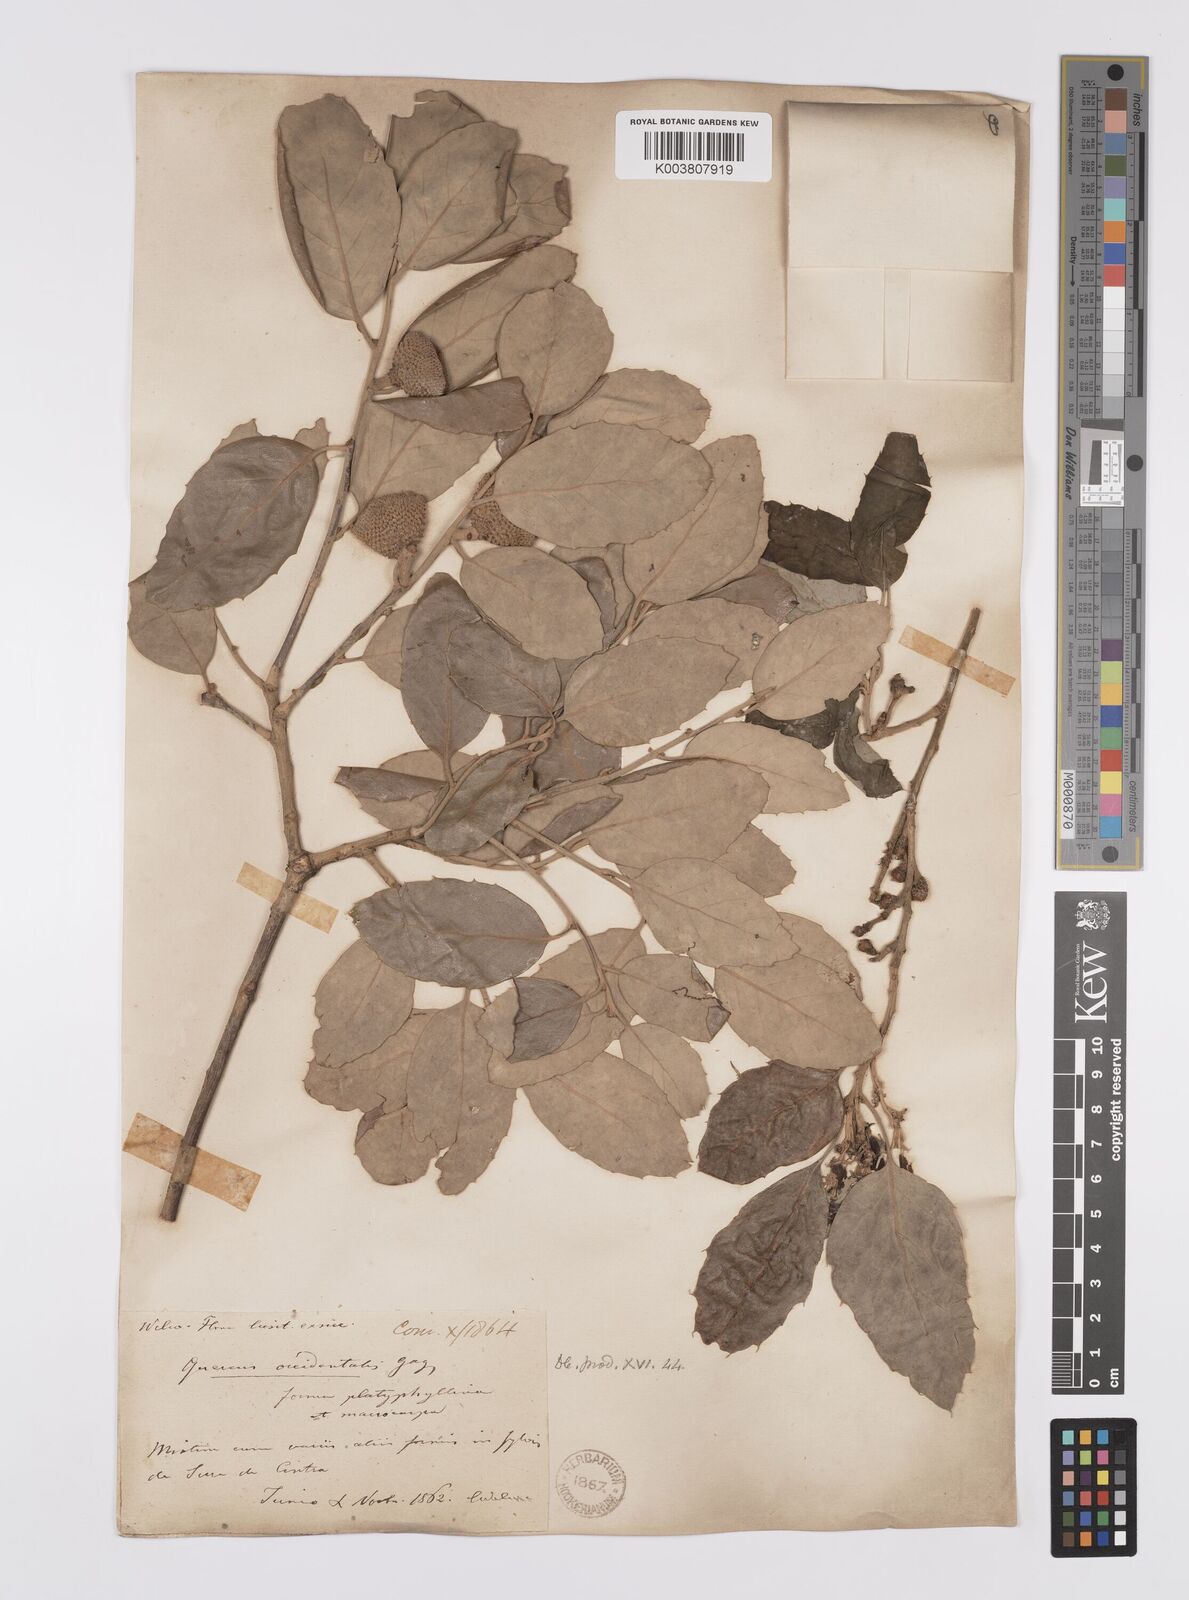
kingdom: Plantae
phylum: Tracheophyta
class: Magnoliopsida
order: Fagales
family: Fagaceae
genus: Quercus
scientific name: Quercus suber
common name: Cork oak
